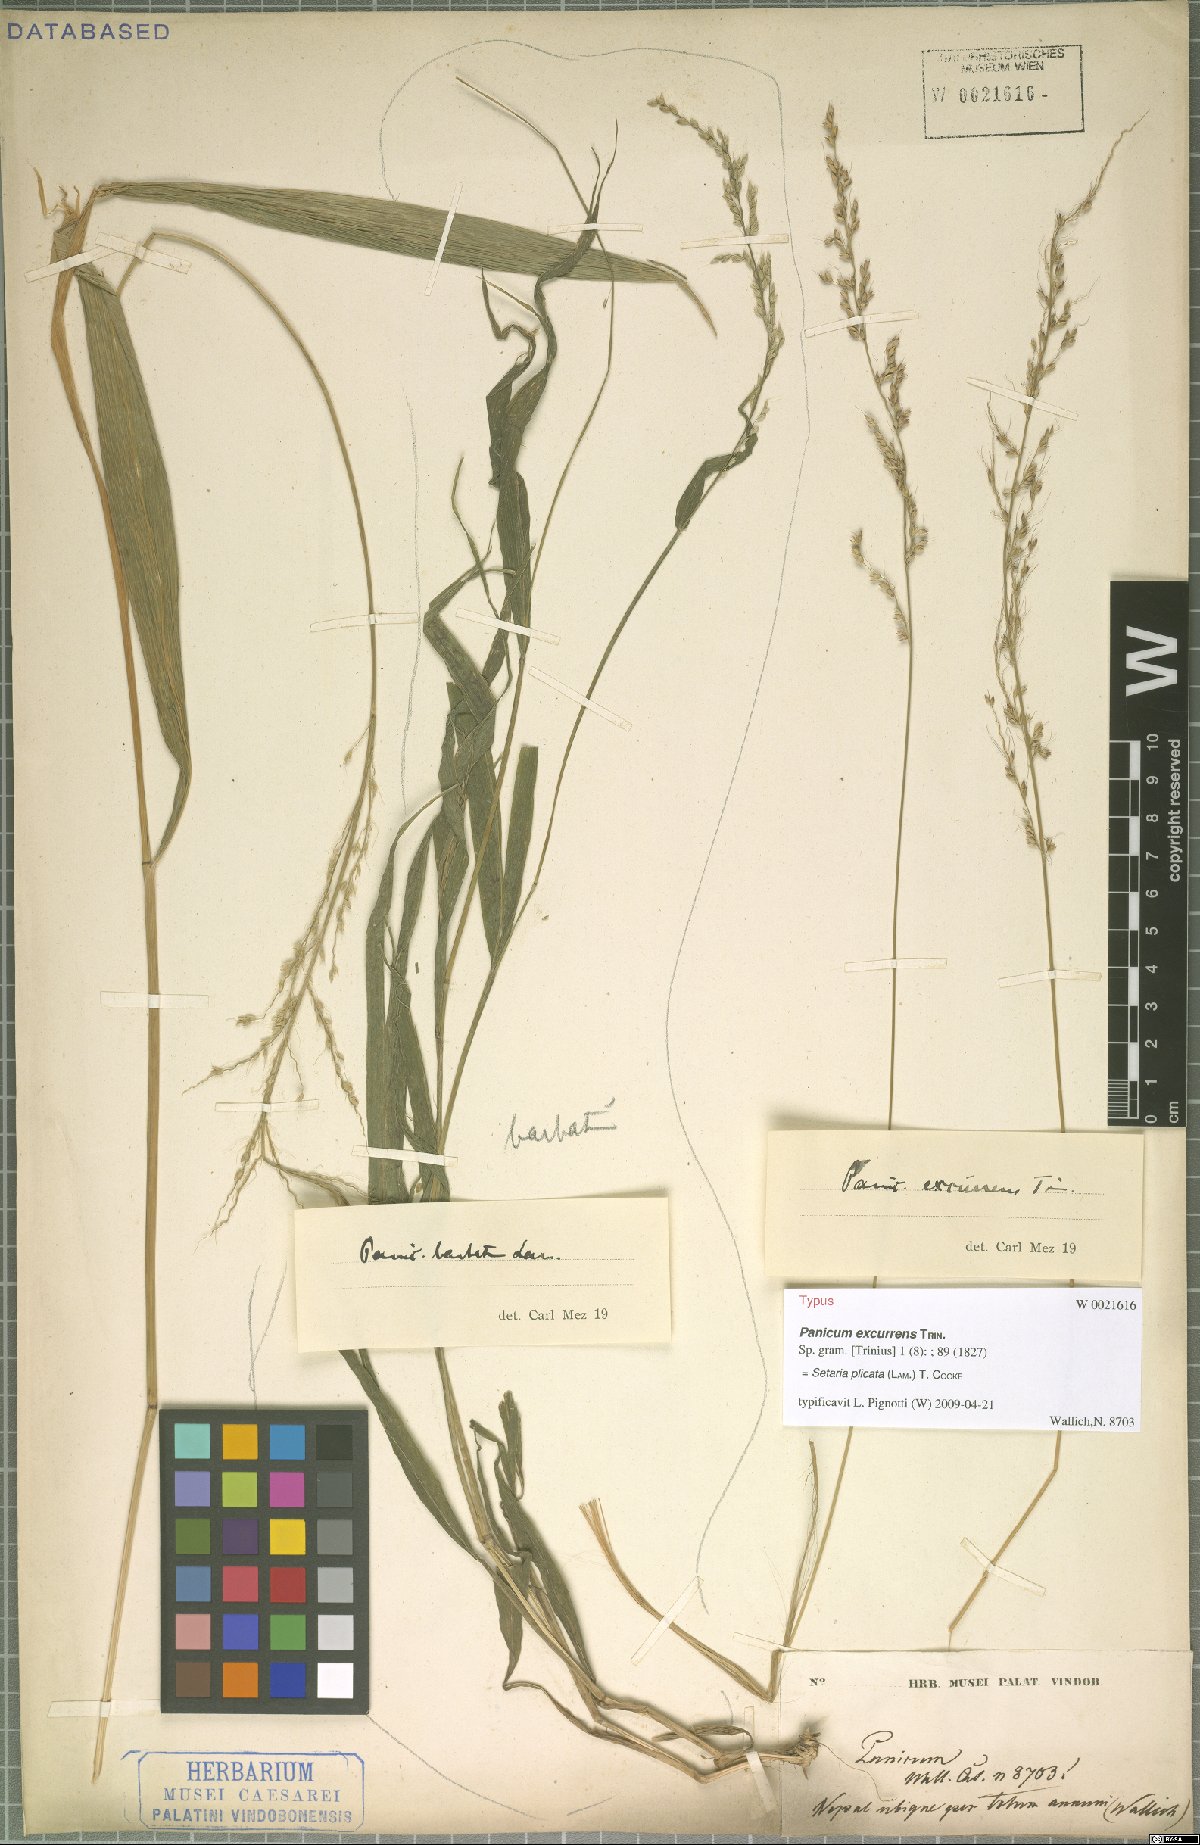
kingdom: Plantae
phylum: Tracheophyta
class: Liliopsida
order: Poales
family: Poaceae
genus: Setaria
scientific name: Setaria plicata
